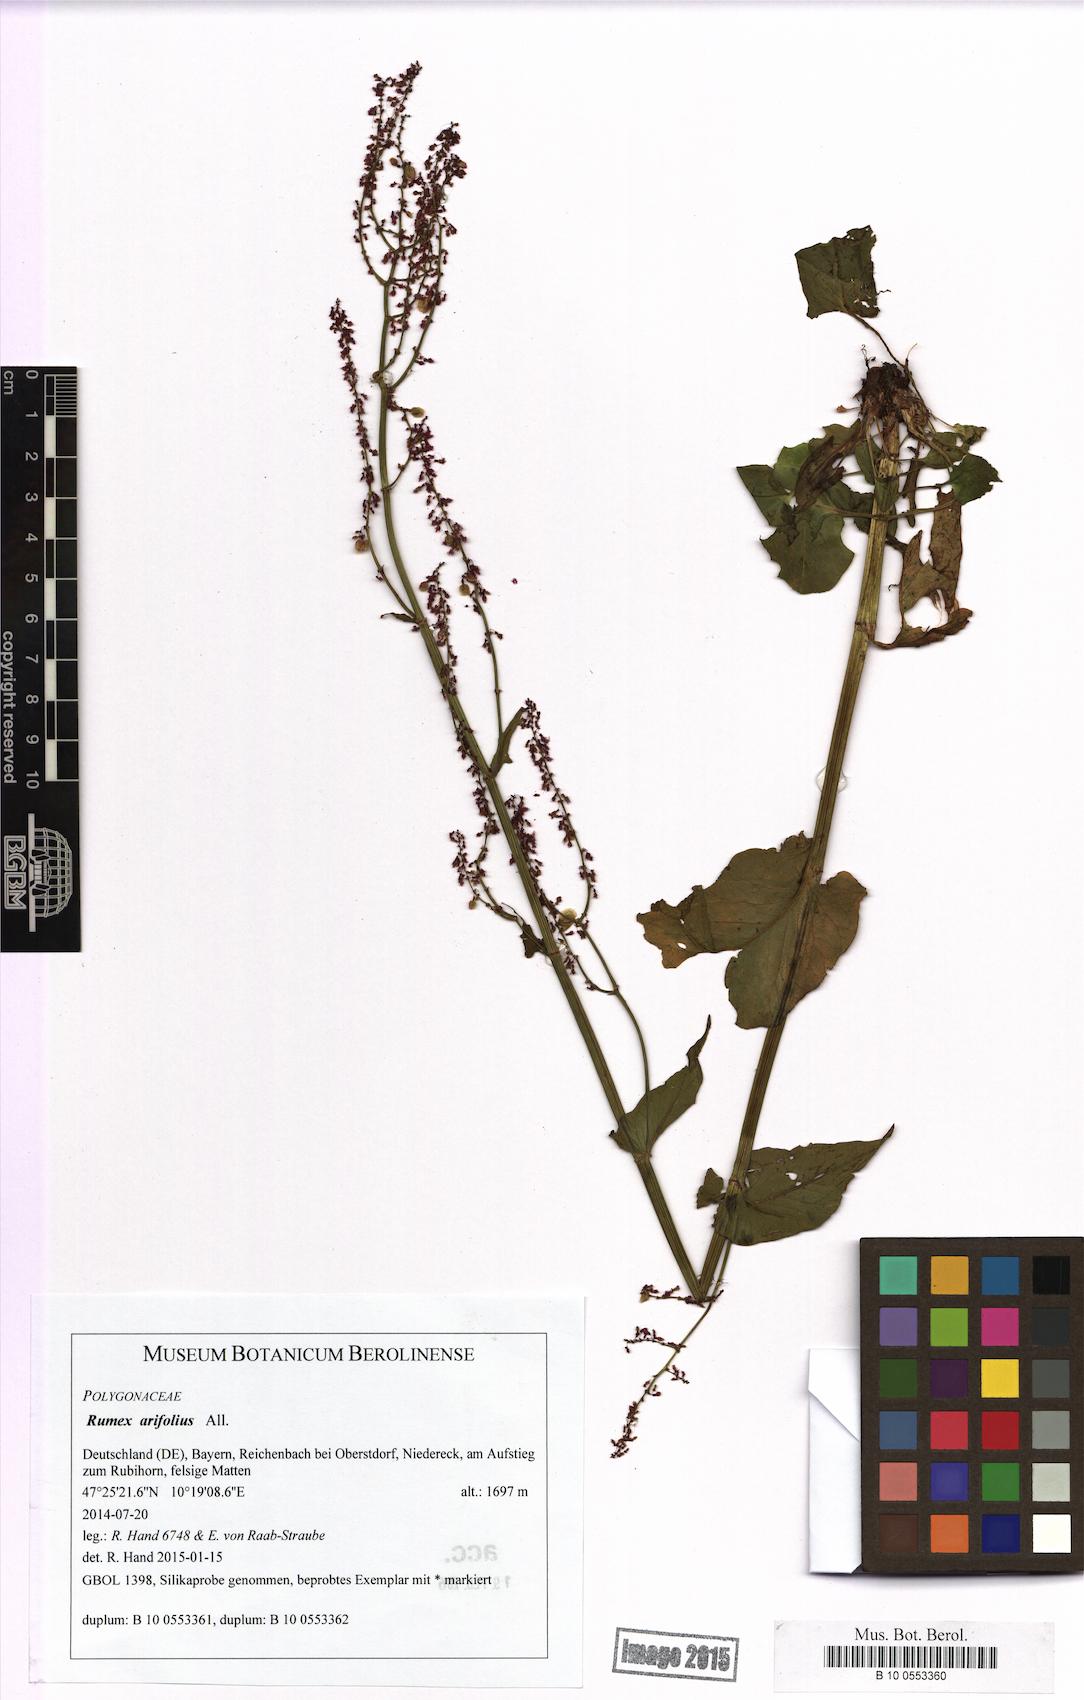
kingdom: Plantae
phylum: Tracheophyta
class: Magnoliopsida
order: Caryophyllales
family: Polygonaceae
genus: Rumex
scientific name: Rumex arifolius
